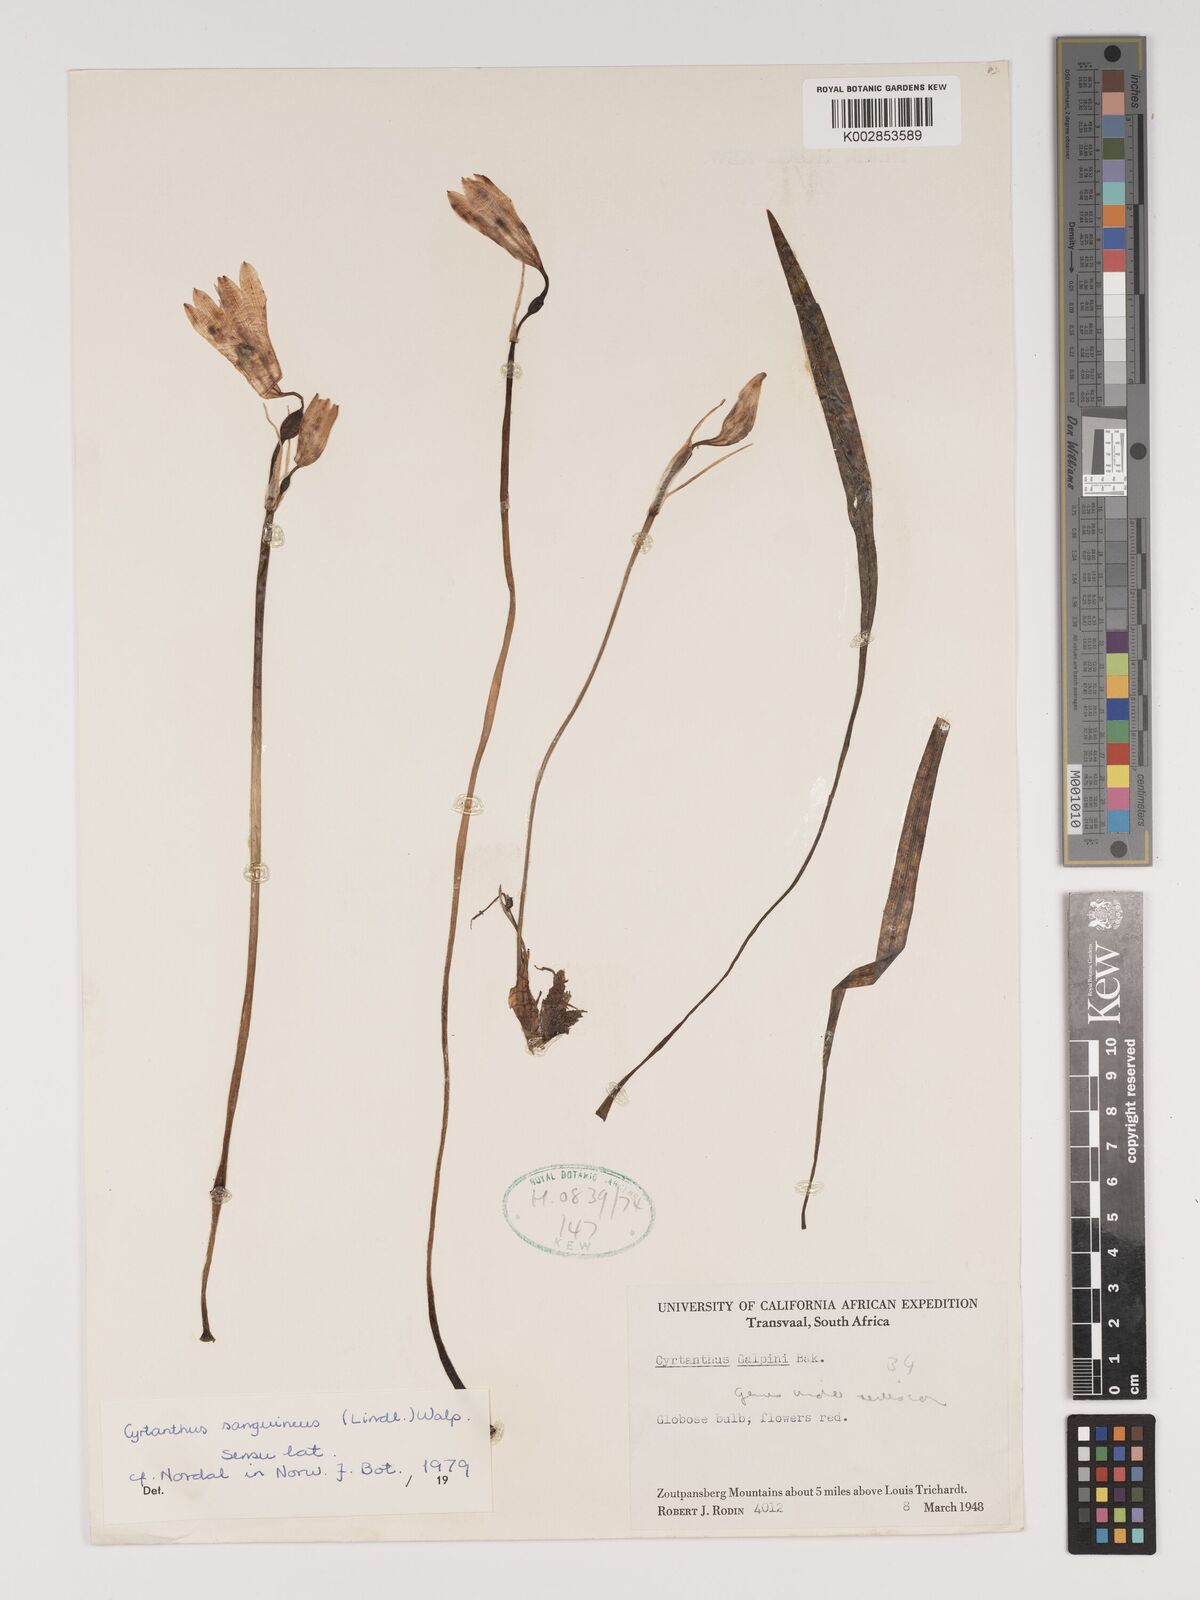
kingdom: Plantae
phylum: Tracheophyta
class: Liliopsida
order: Asparagales
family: Amaryllidaceae
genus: Cyrtanthus
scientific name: Cyrtanthus sanguineus
